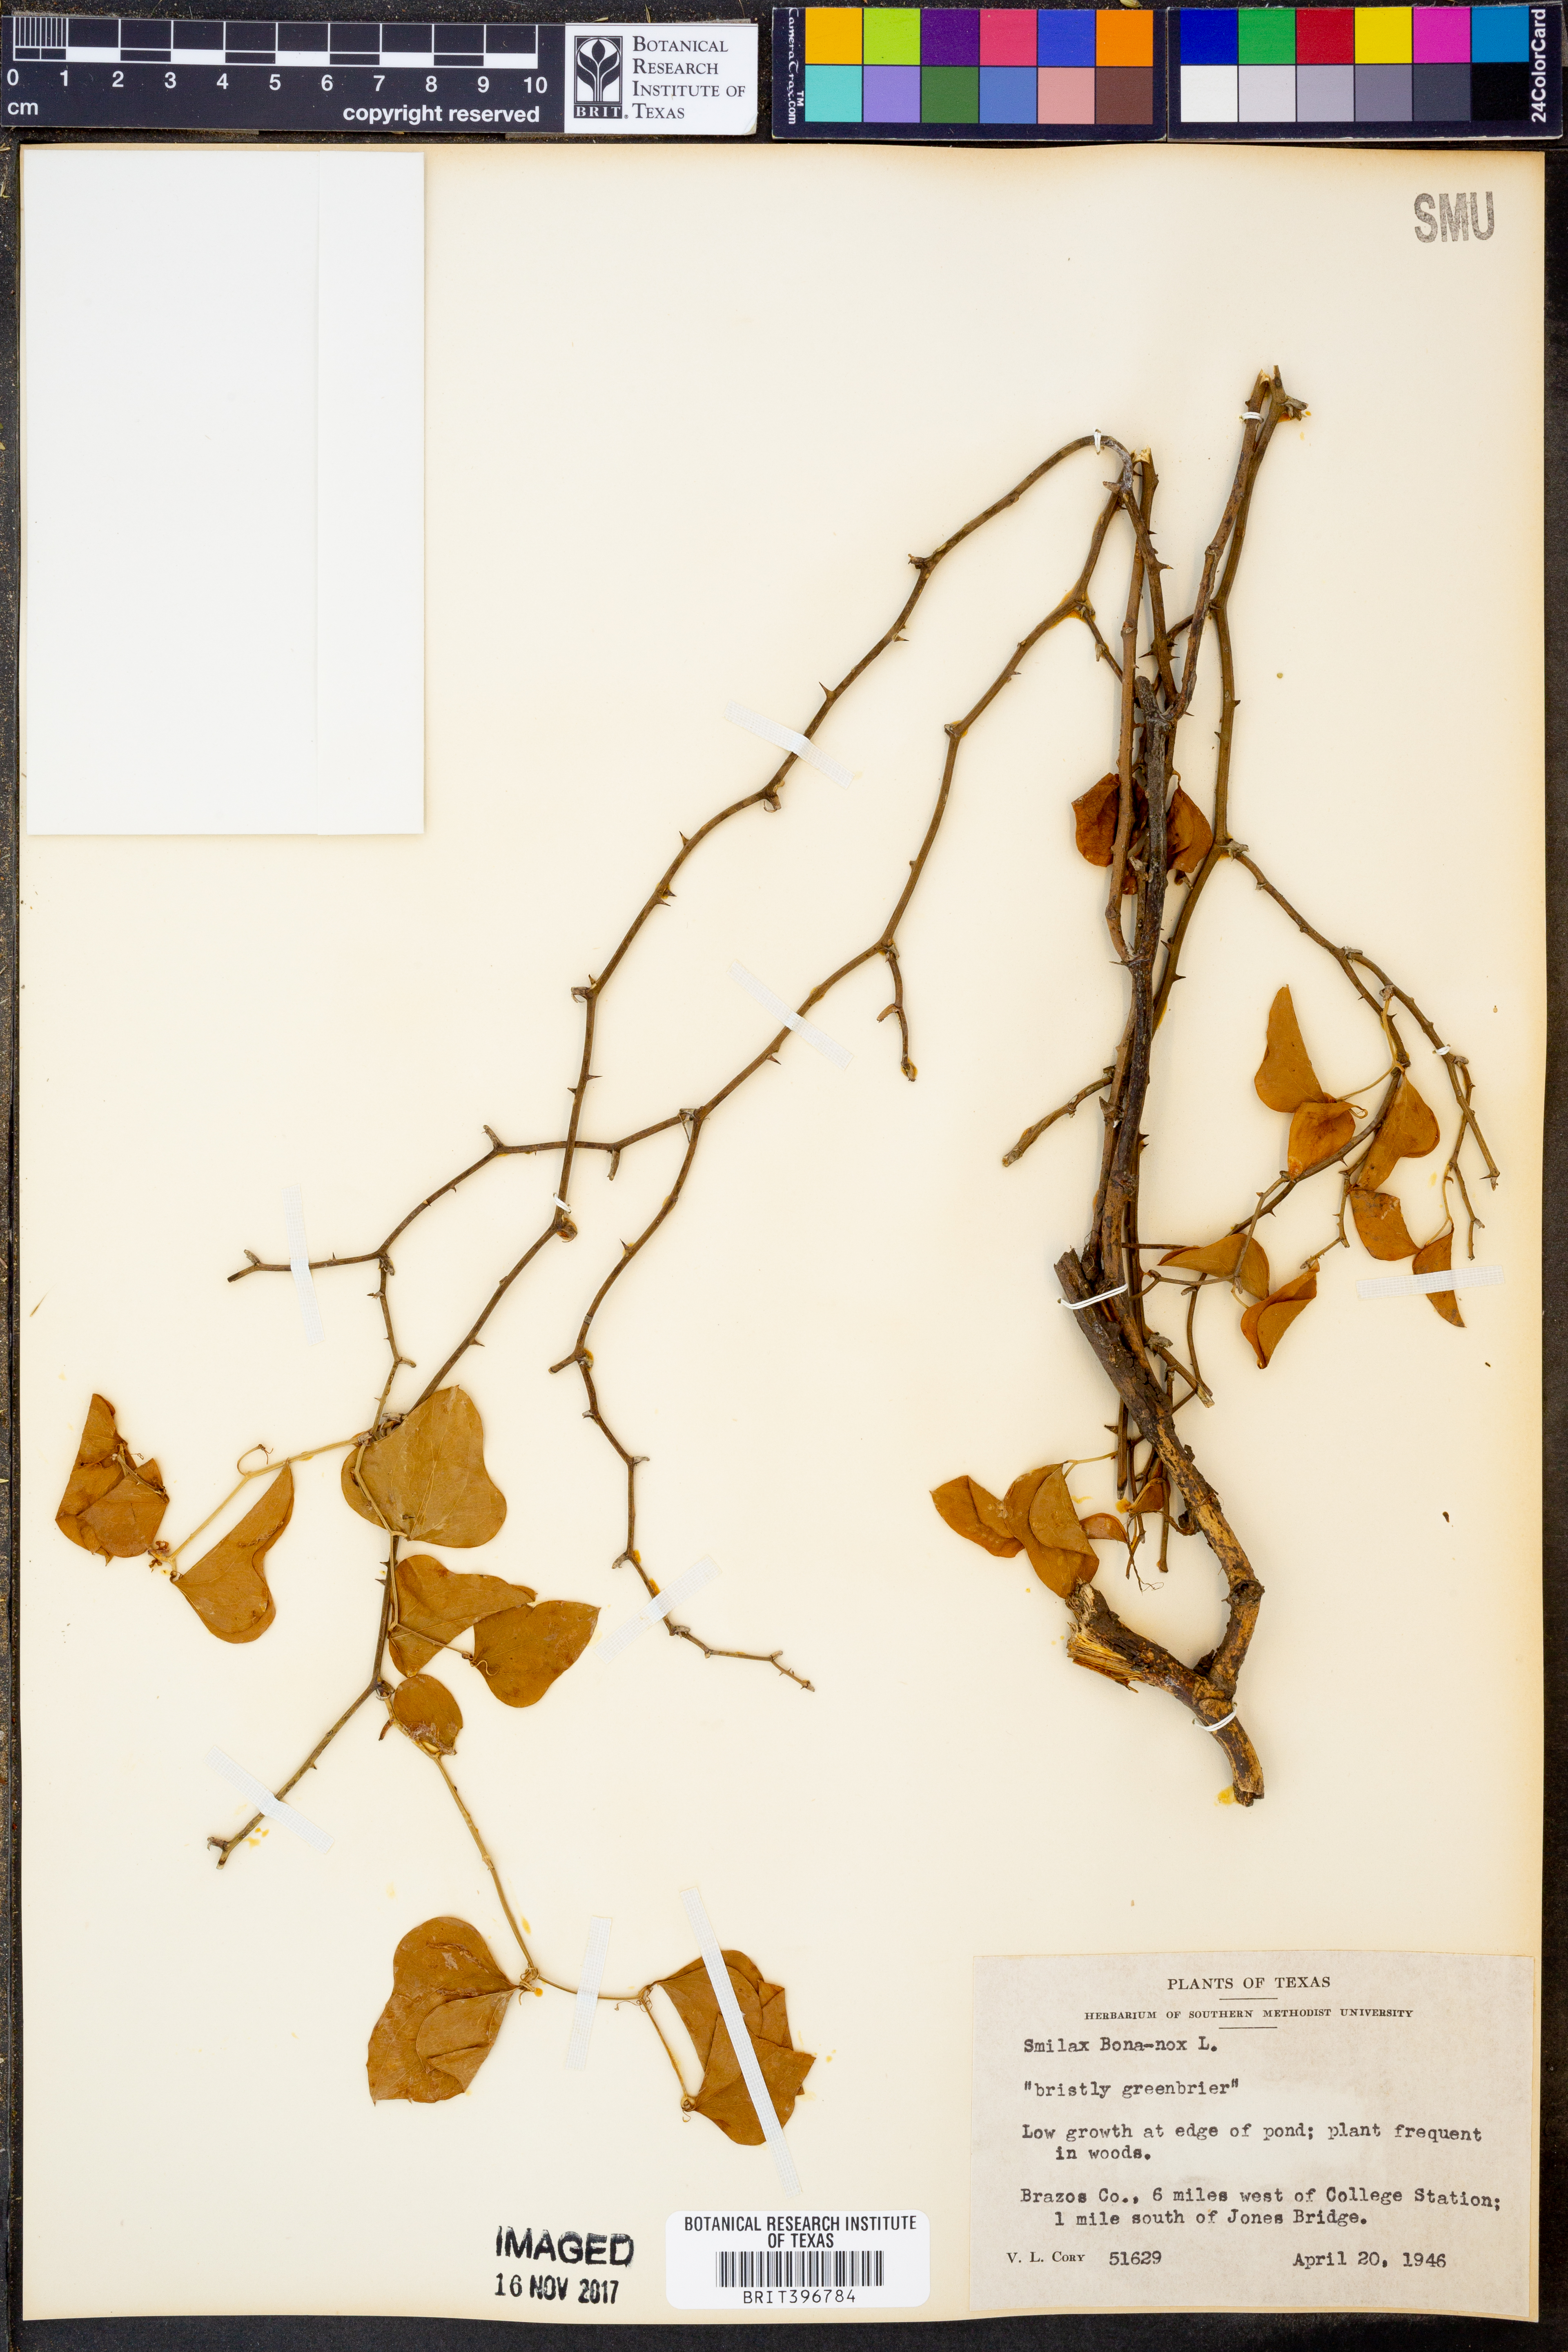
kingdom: Plantae
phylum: Tracheophyta
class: Liliopsida
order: Liliales
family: Smilacaceae
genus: Smilax
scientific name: Smilax bona-nox
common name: Catbrier
